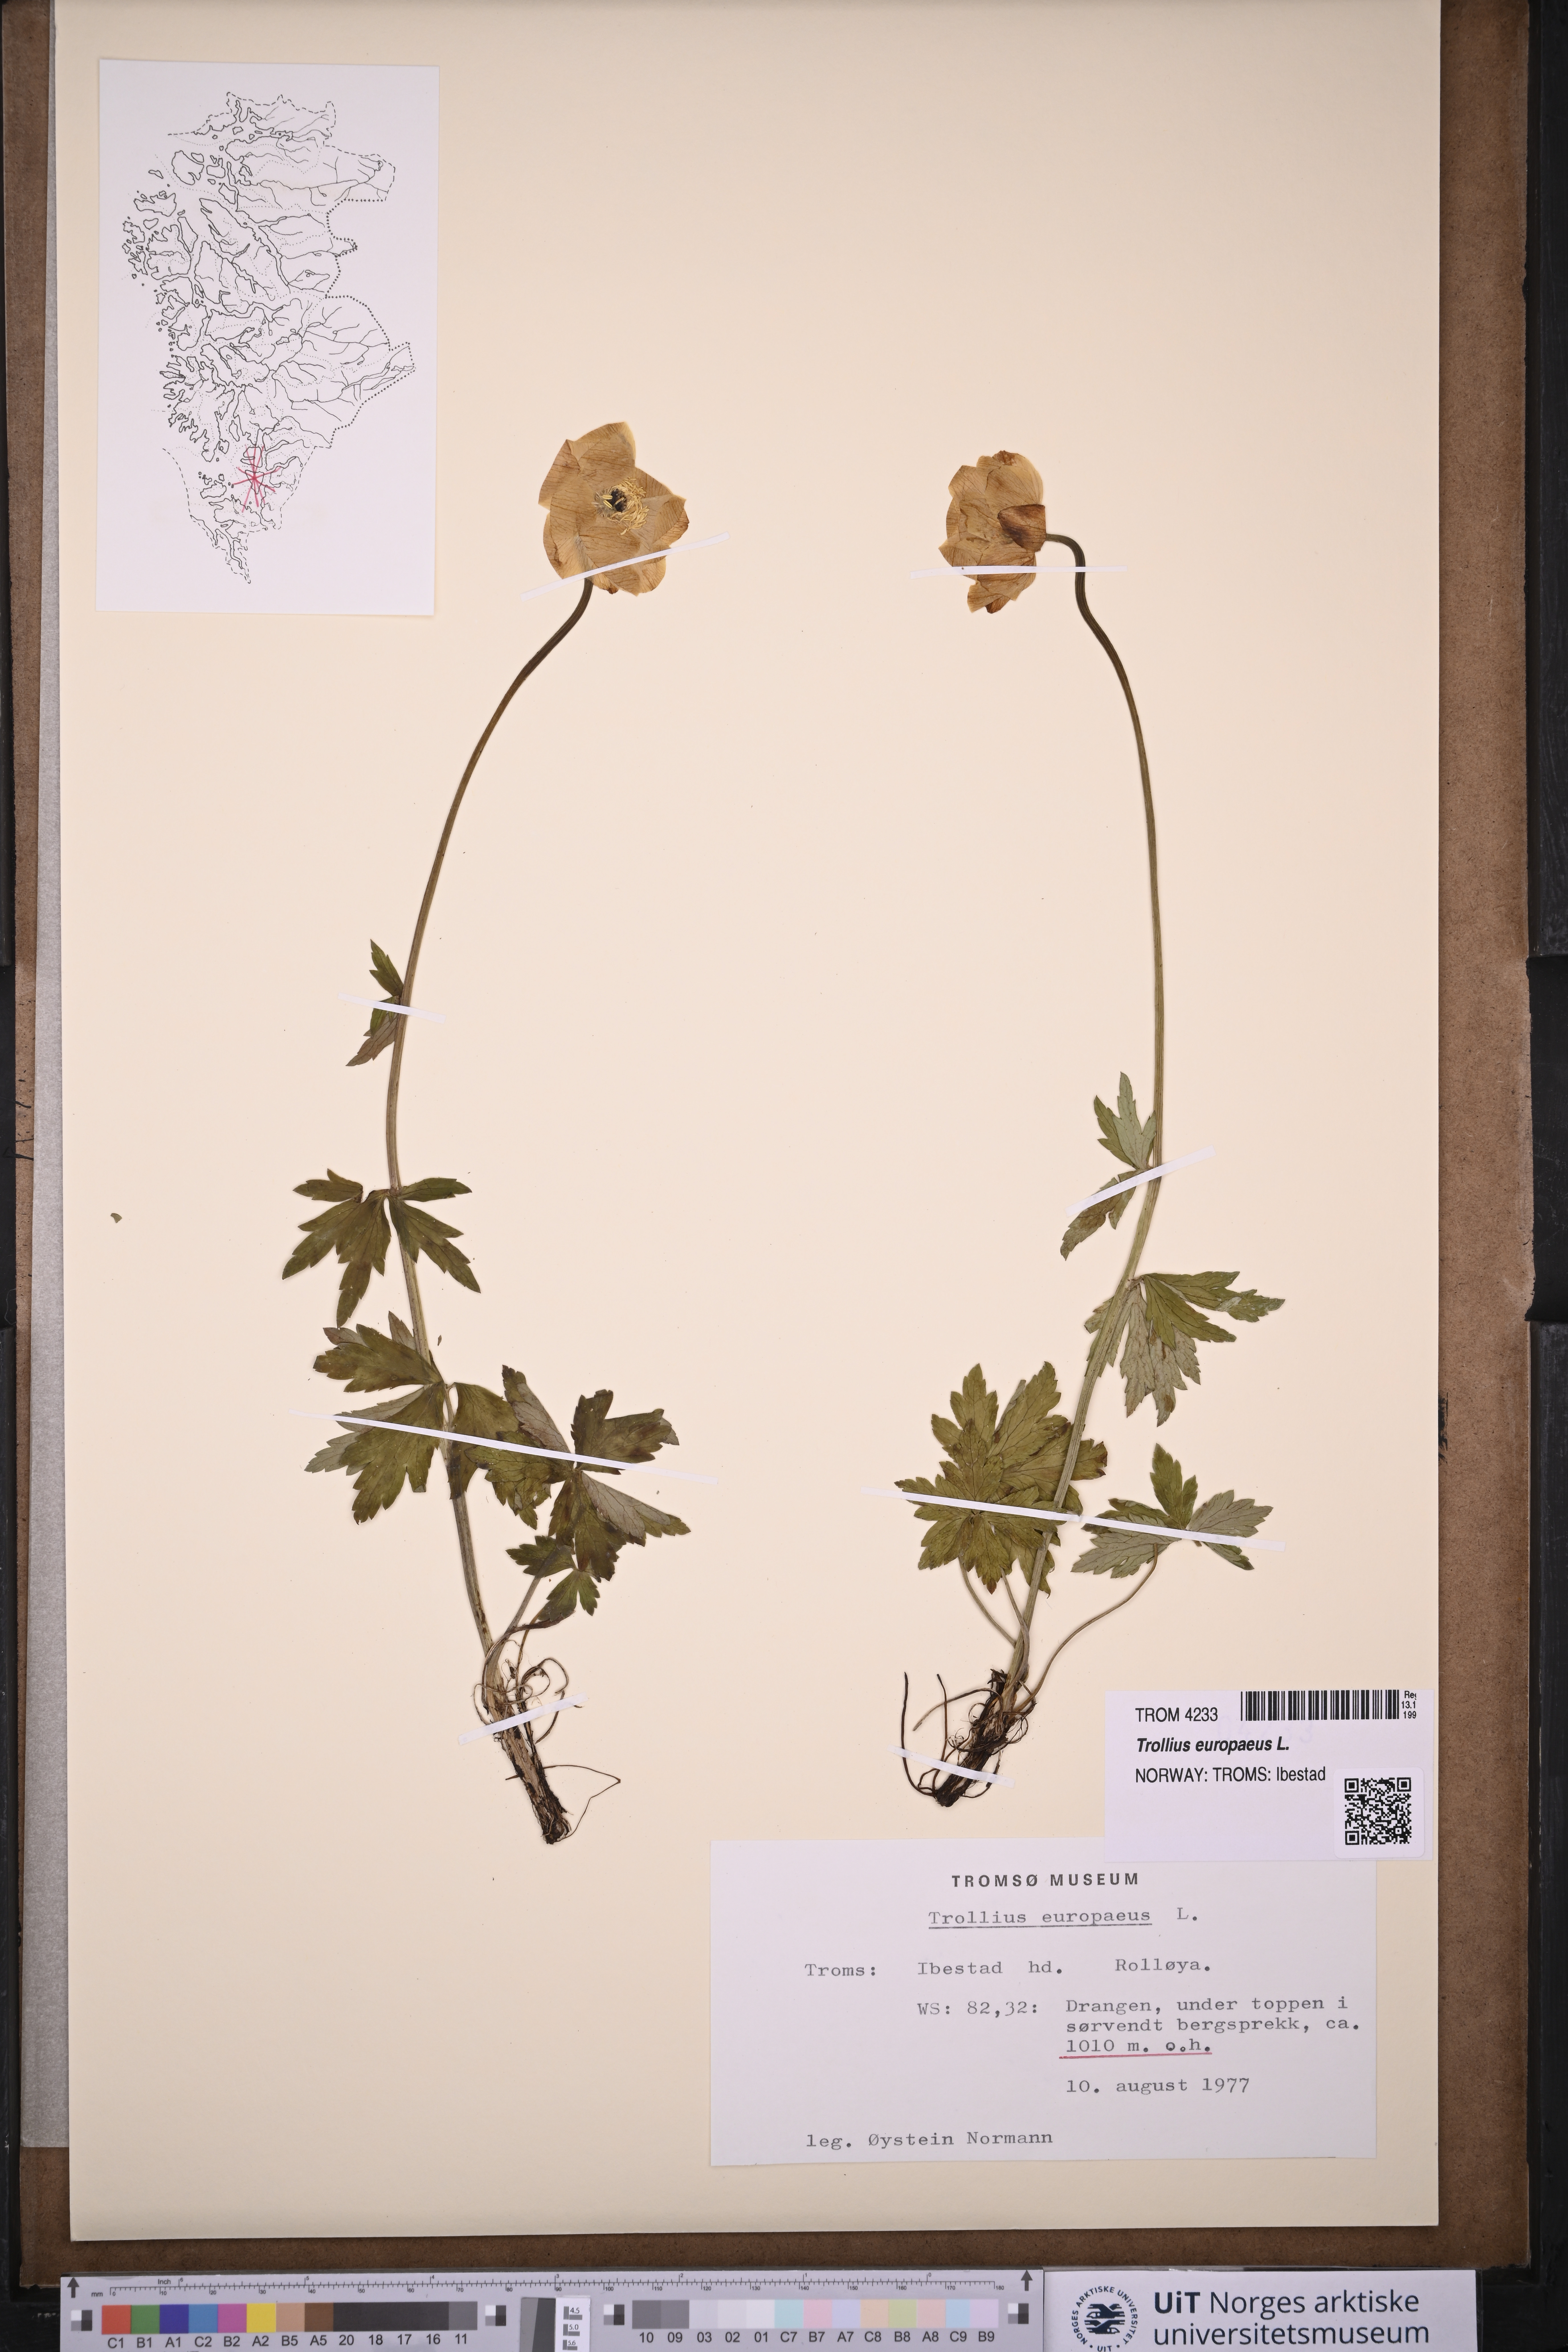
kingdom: Plantae
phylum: Tracheophyta
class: Magnoliopsida
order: Ranunculales
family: Ranunculaceae
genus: Trollius
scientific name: Trollius europaeus
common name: European globeflower
